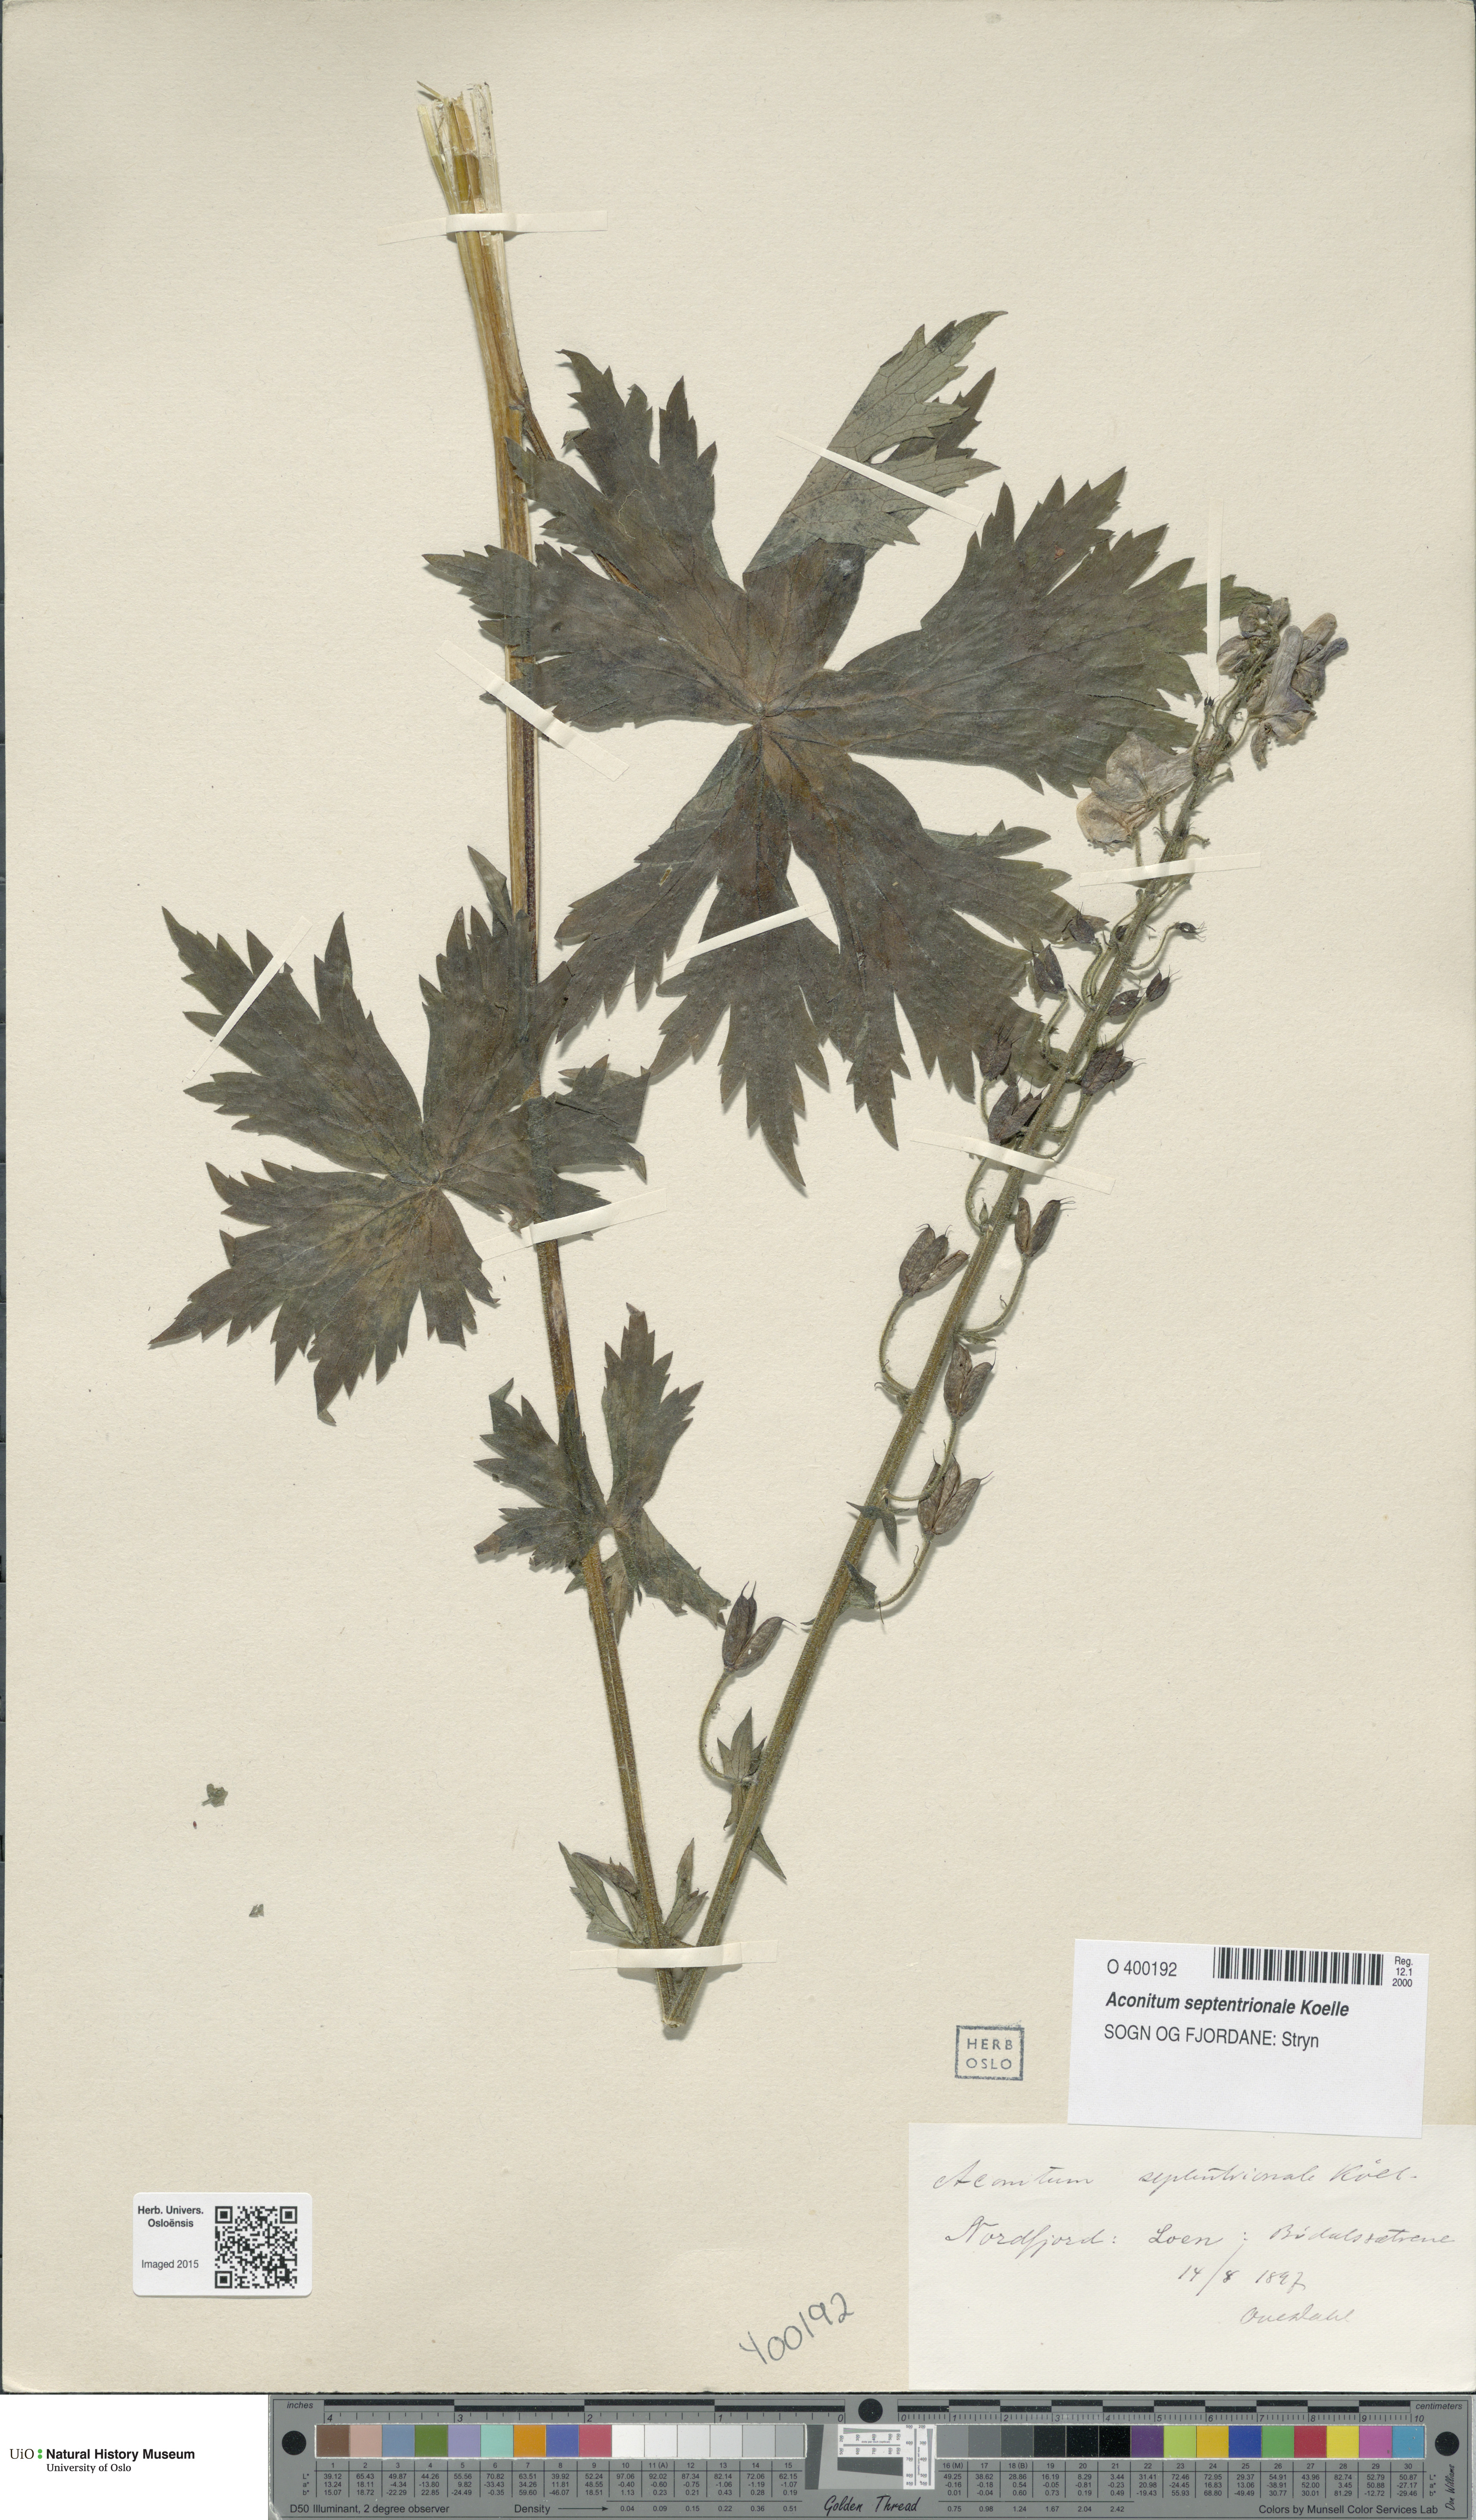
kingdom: Plantae
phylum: Tracheophyta
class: Magnoliopsida
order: Ranunculales
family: Ranunculaceae
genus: Aconitum
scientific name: Aconitum septentrionale
